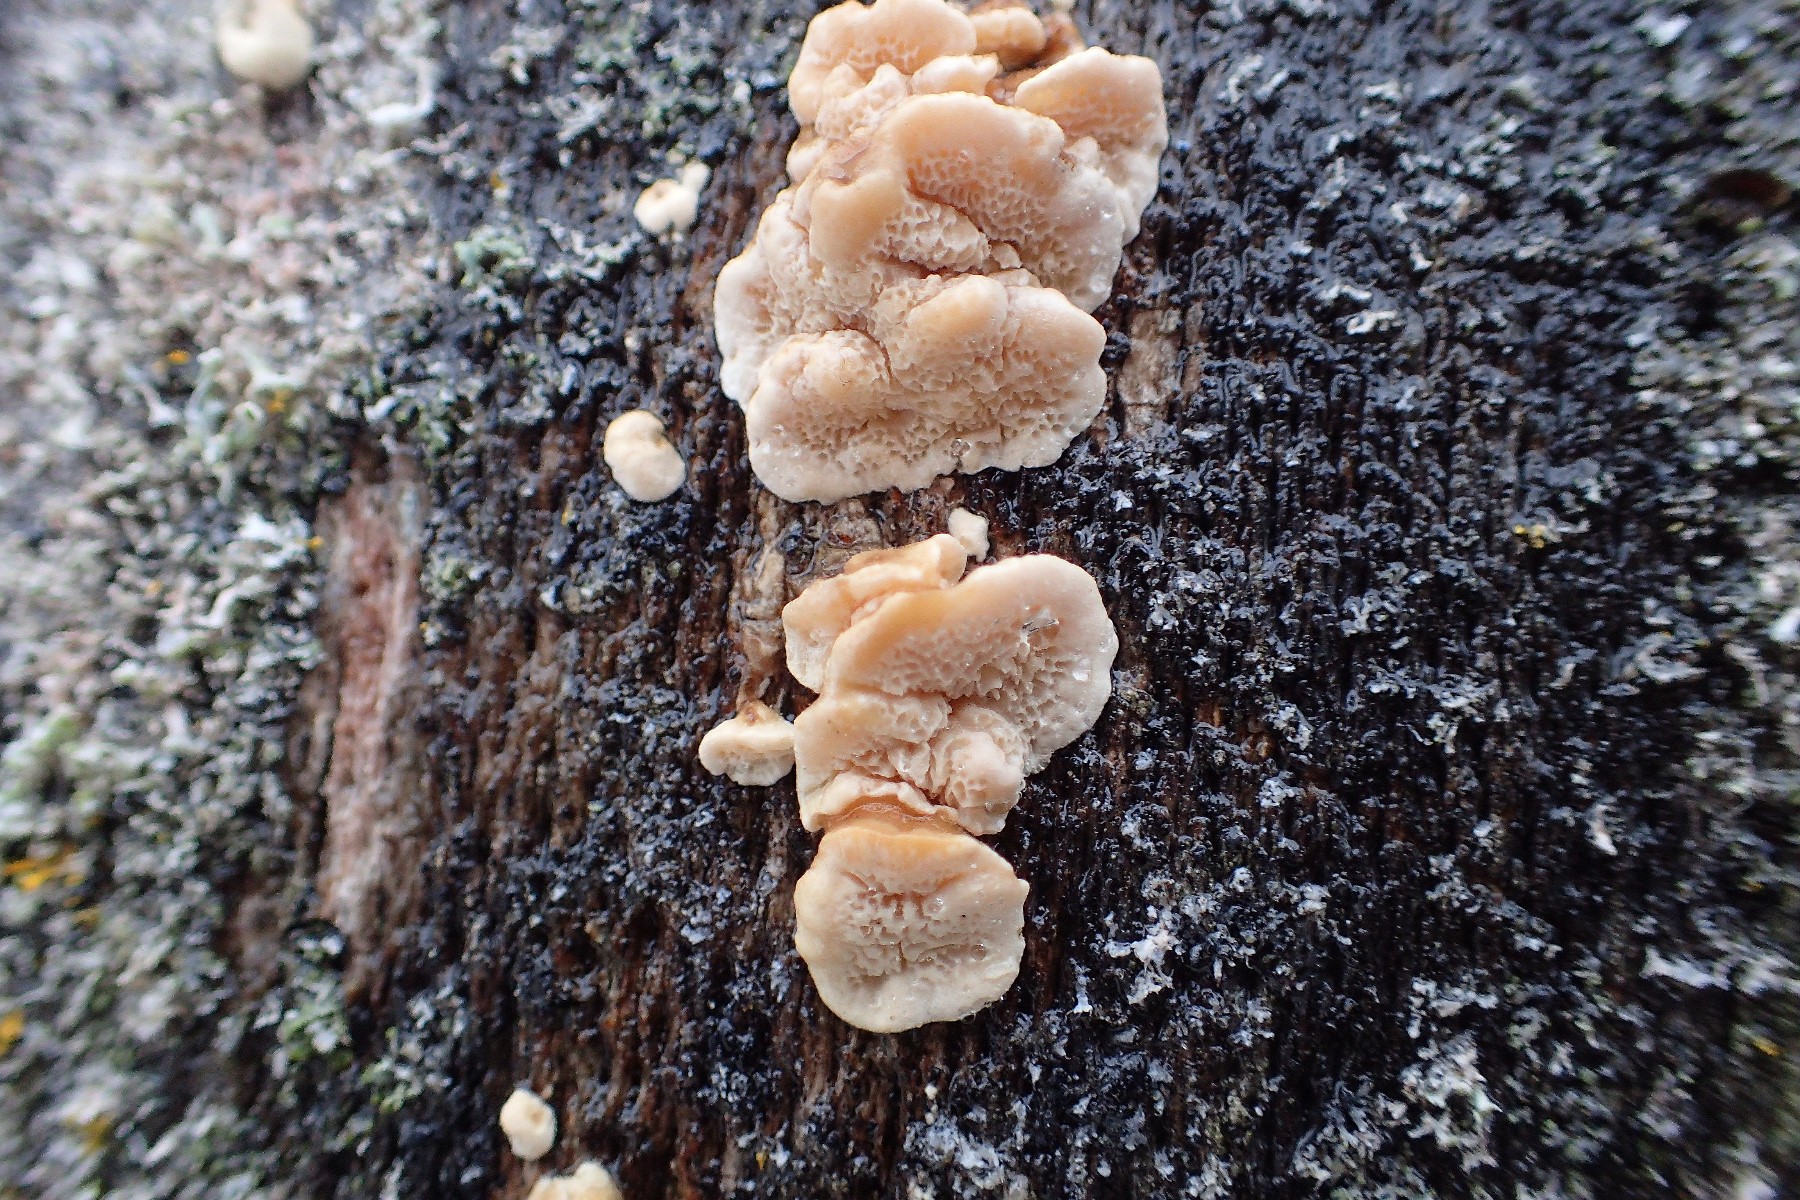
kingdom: Fungi
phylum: Basidiomycota
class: Agaricomycetes
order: Polyporales
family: Polyporaceae
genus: Podofomes
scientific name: Podofomes mollis
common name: blød begporesvamp
